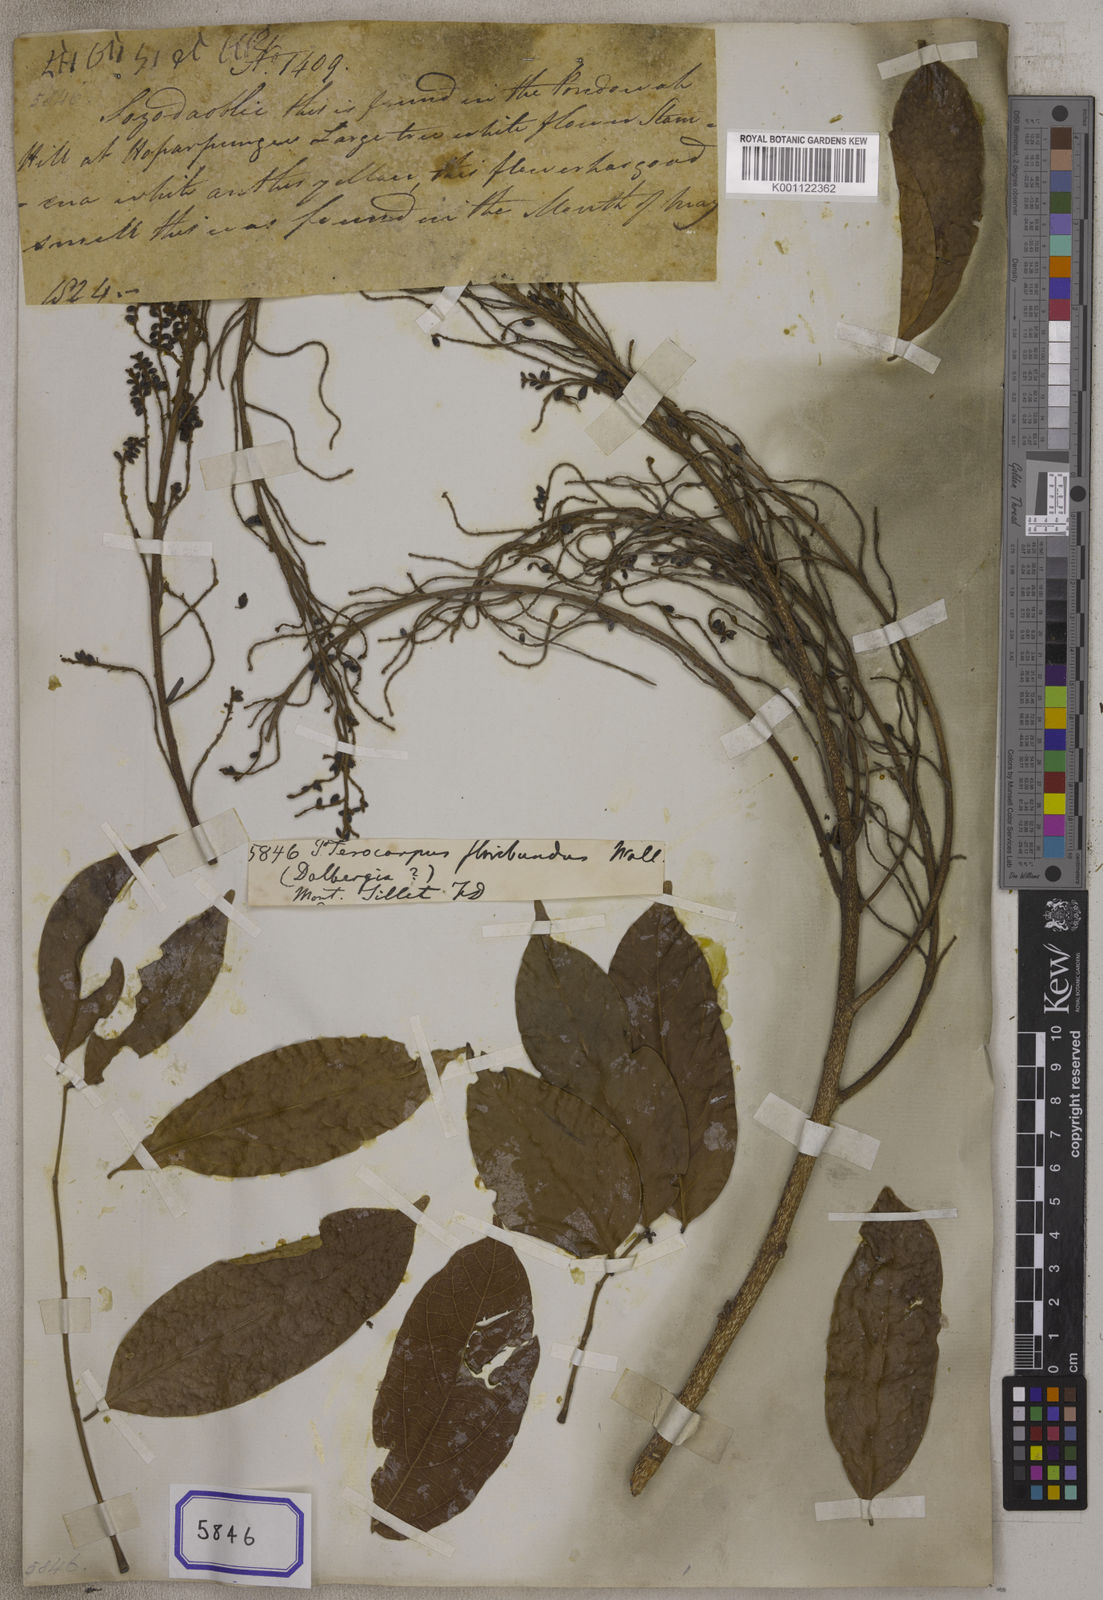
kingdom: Plantae
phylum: Tracheophyta
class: Magnoliopsida
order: Fabales
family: Fabaceae
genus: Pterocarpus
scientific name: Pterocarpus floribundus
